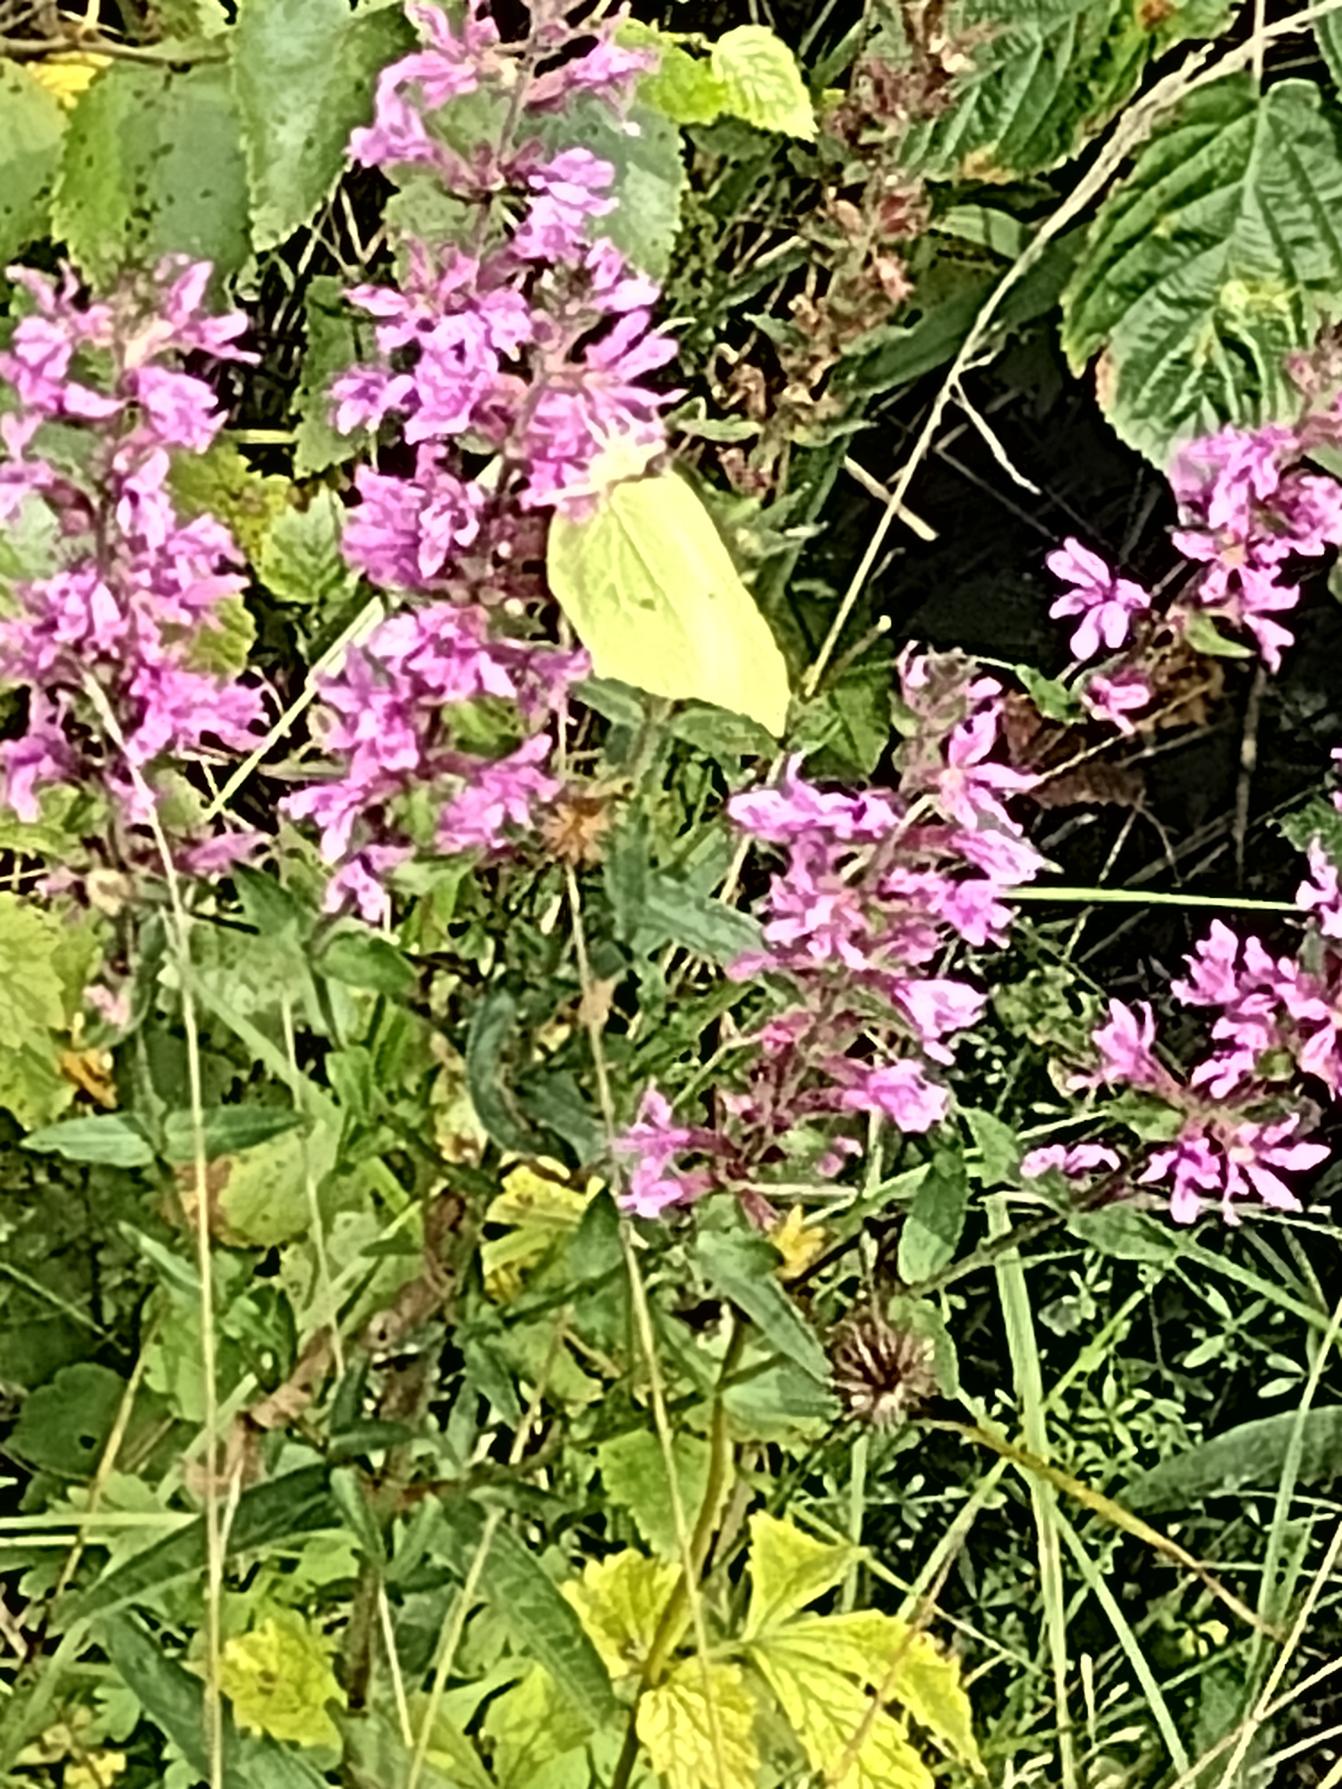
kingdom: Animalia
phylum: Arthropoda
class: Insecta
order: Lepidoptera
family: Pieridae
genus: Gonepteryx
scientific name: Gonepteryx rhamni
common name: Citronsommerfugl
